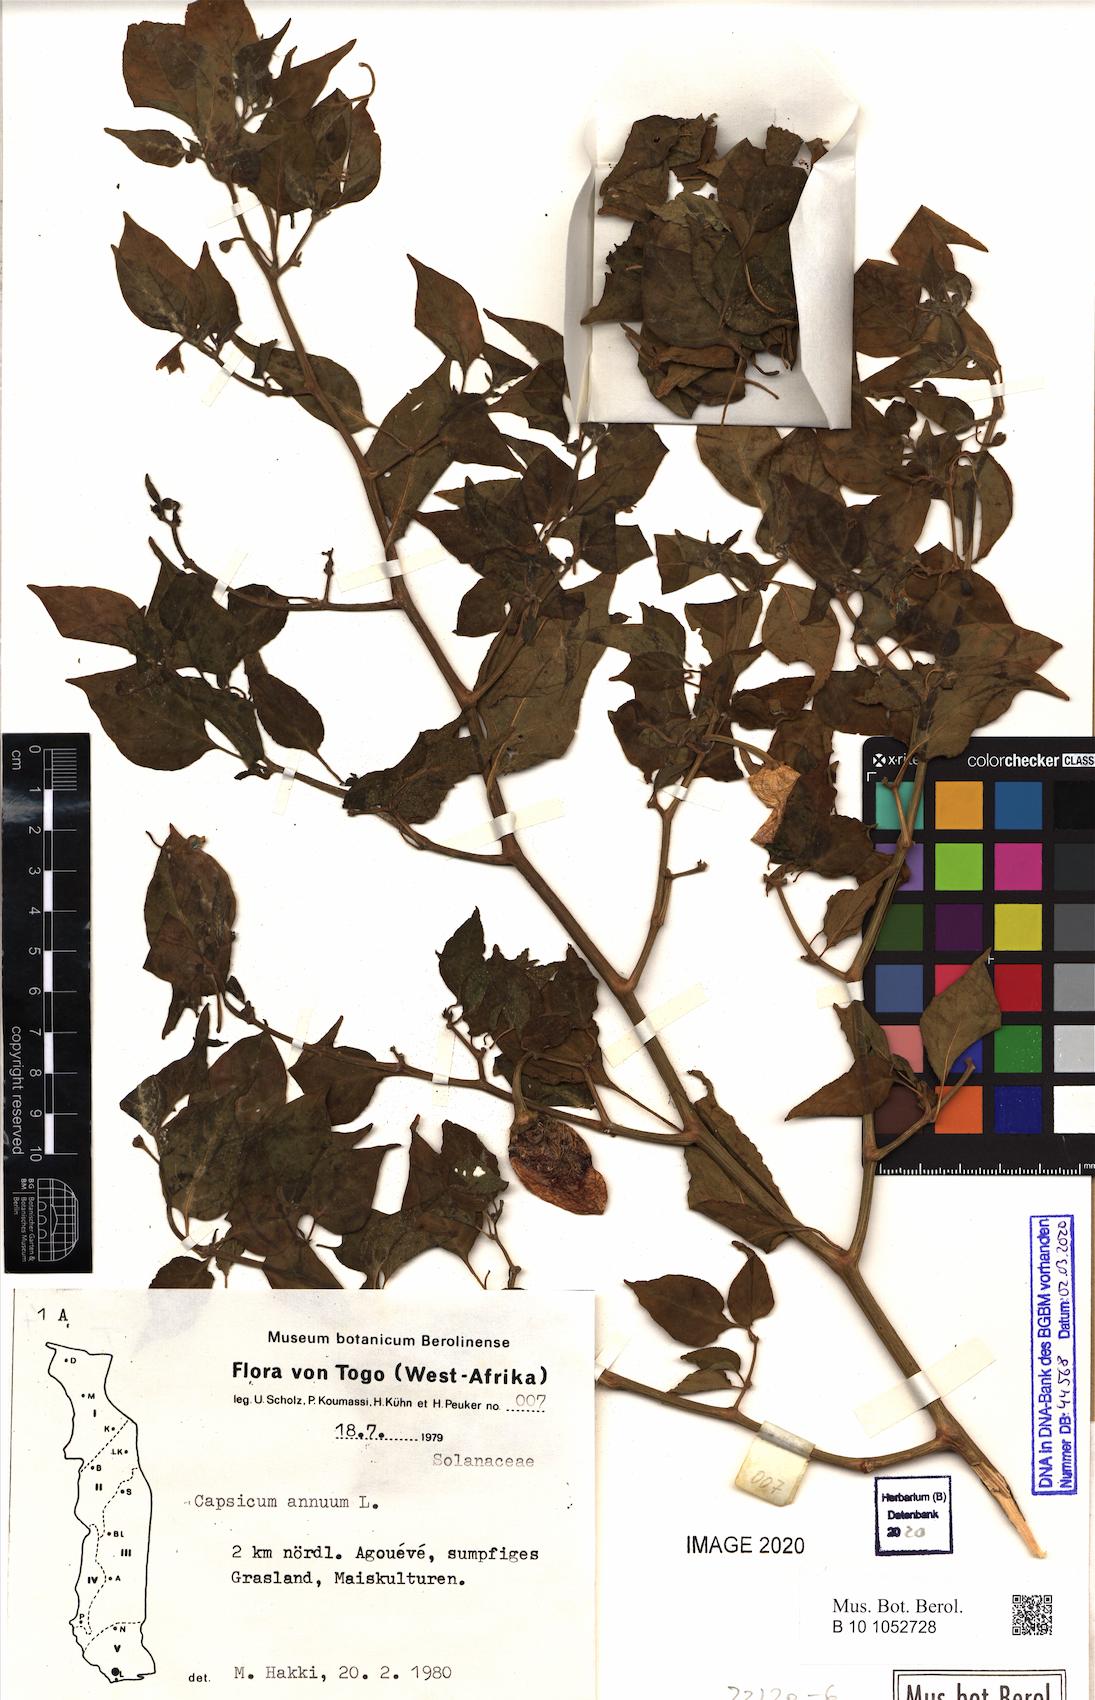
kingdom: Plantae
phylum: Tracheophyta
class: Magnoliopsida
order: Solanales
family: Solanaceae
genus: Capsicum
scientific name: Capsicum annuum
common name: Sweet pepper
